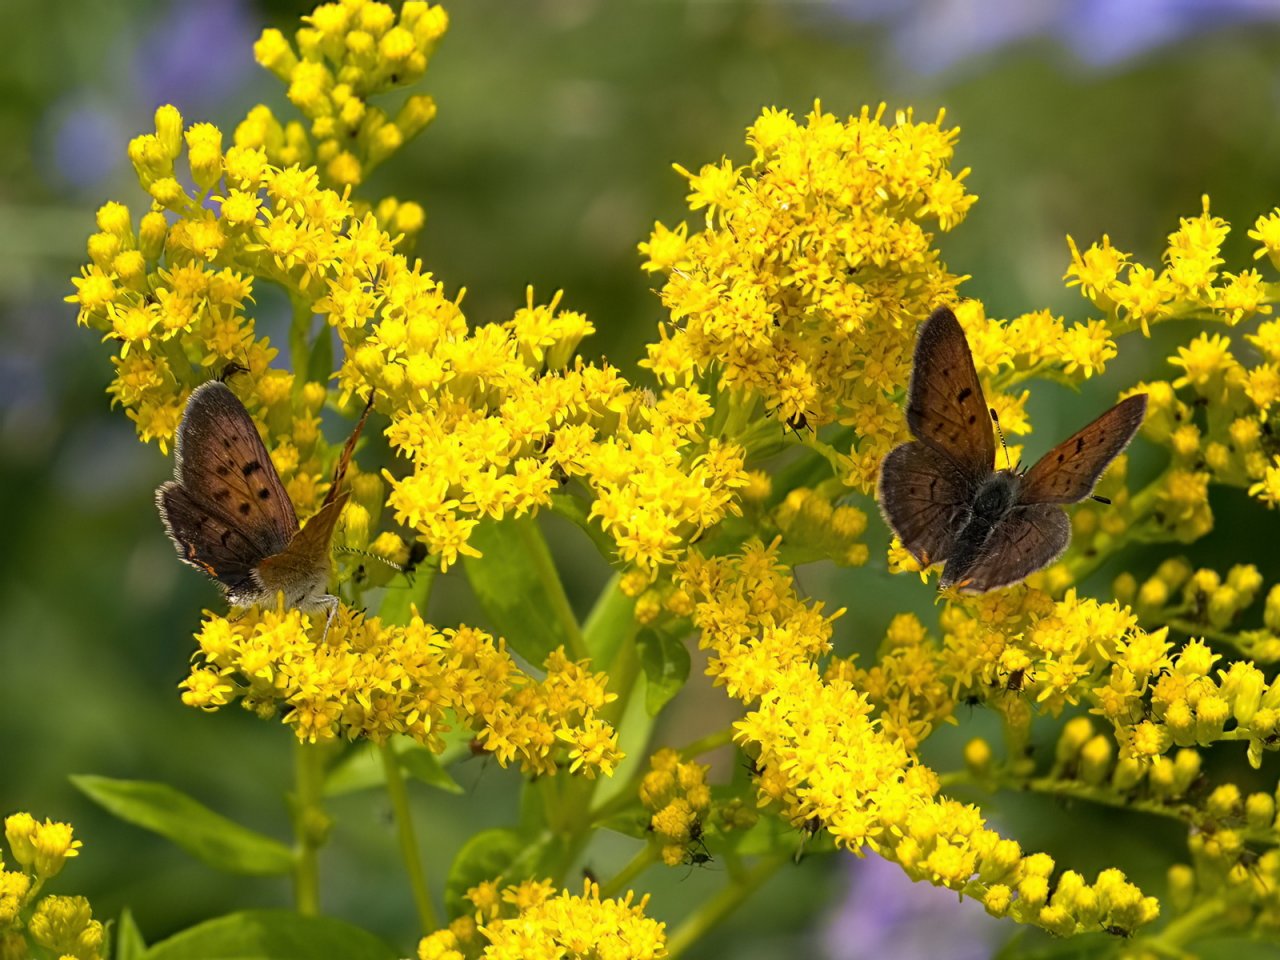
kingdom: Animalia
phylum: Arthropoda
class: Insecta
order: Lepidoptera
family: Lycaenidae
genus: Epidemia
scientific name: Epidemia dorcas
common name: Dorcas Copper
